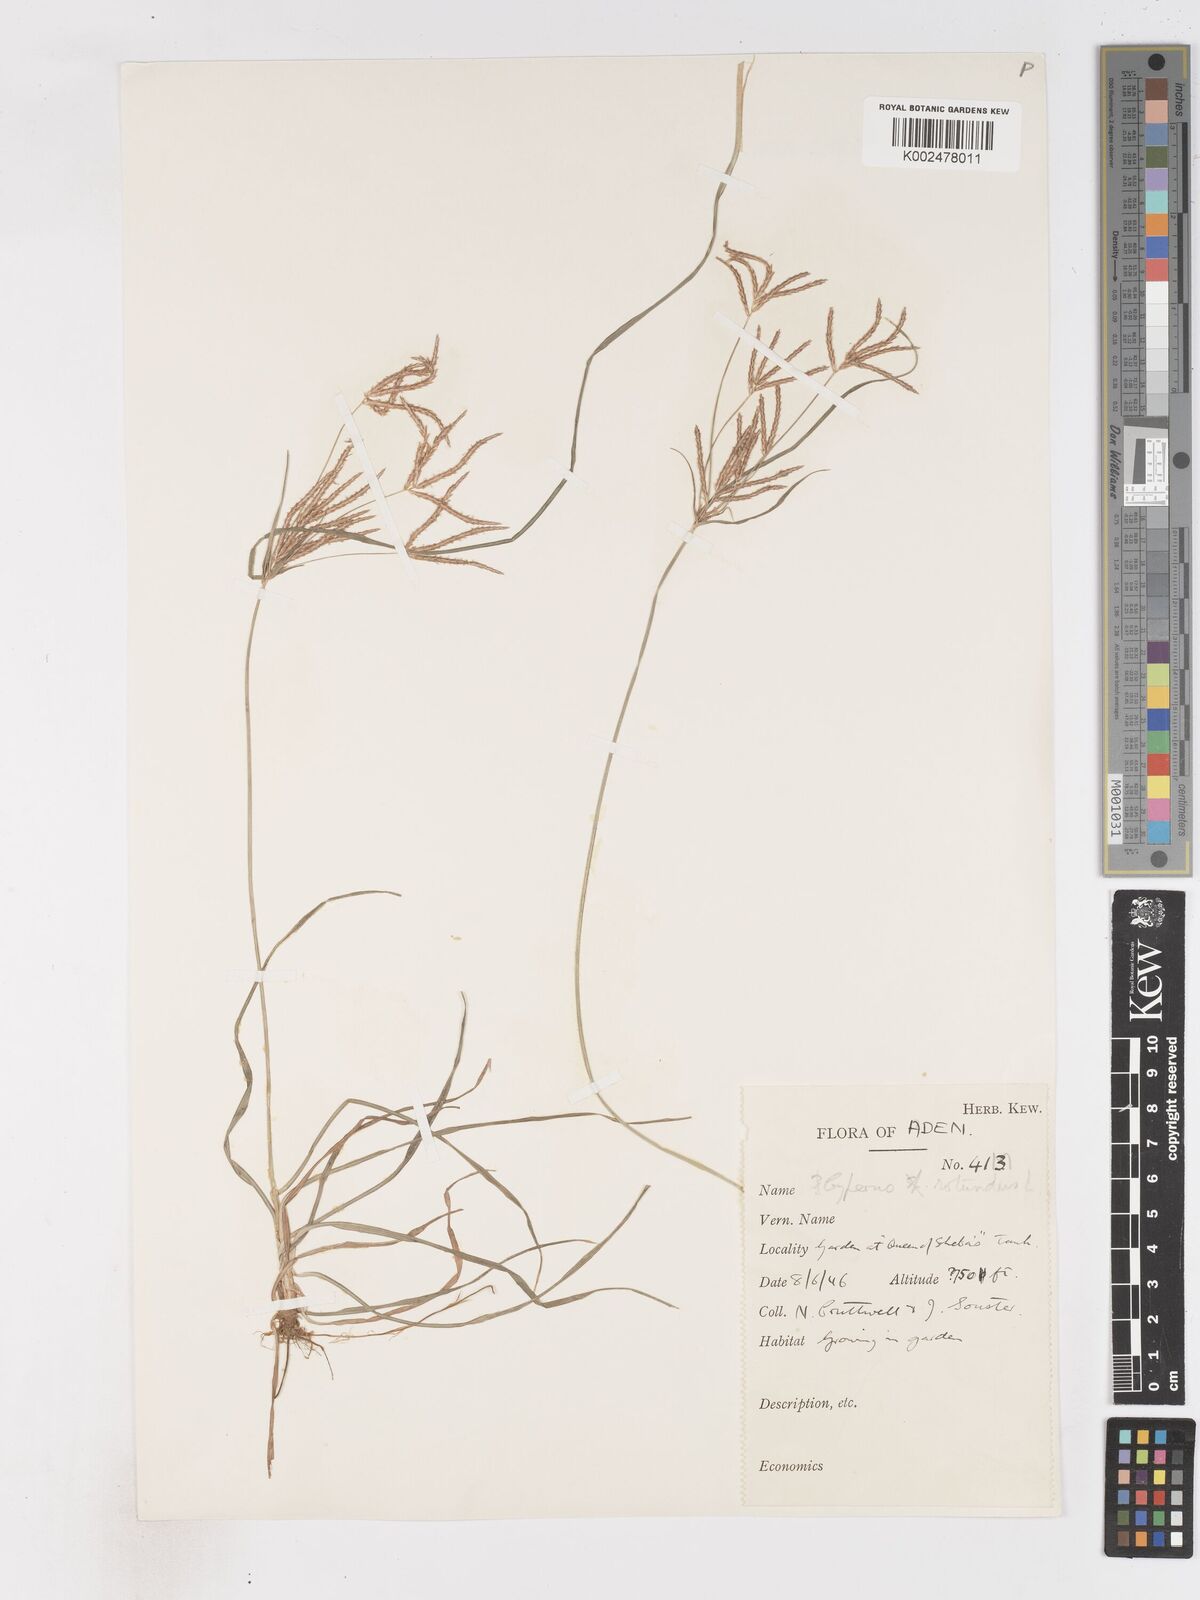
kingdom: Plantae
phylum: Tracheophyta
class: Liliopsida
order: Poales
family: Cyperaceae
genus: Cyperus
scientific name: Cyperus rotundus
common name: Nutgrass
